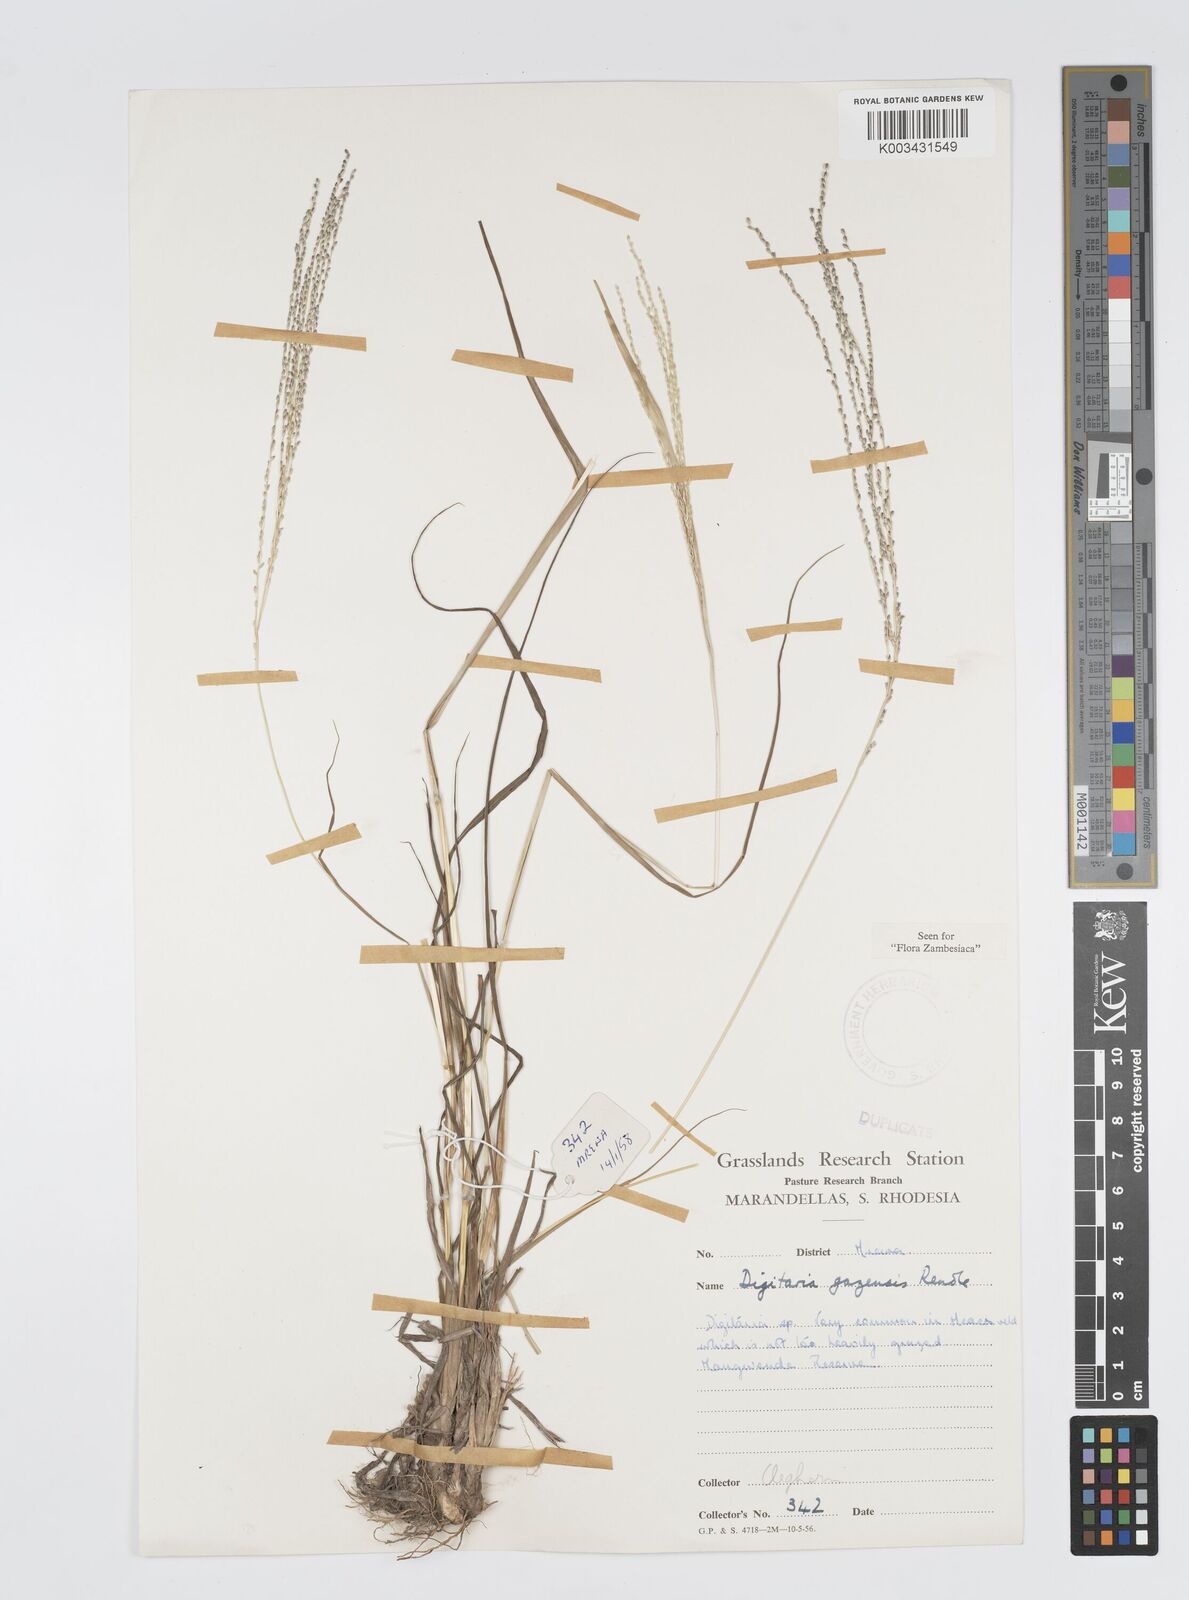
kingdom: Plantae
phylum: Tracheophyta
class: Liliopsida
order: Poales
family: Poaceae
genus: Digitaria
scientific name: Digitaria gazensis
